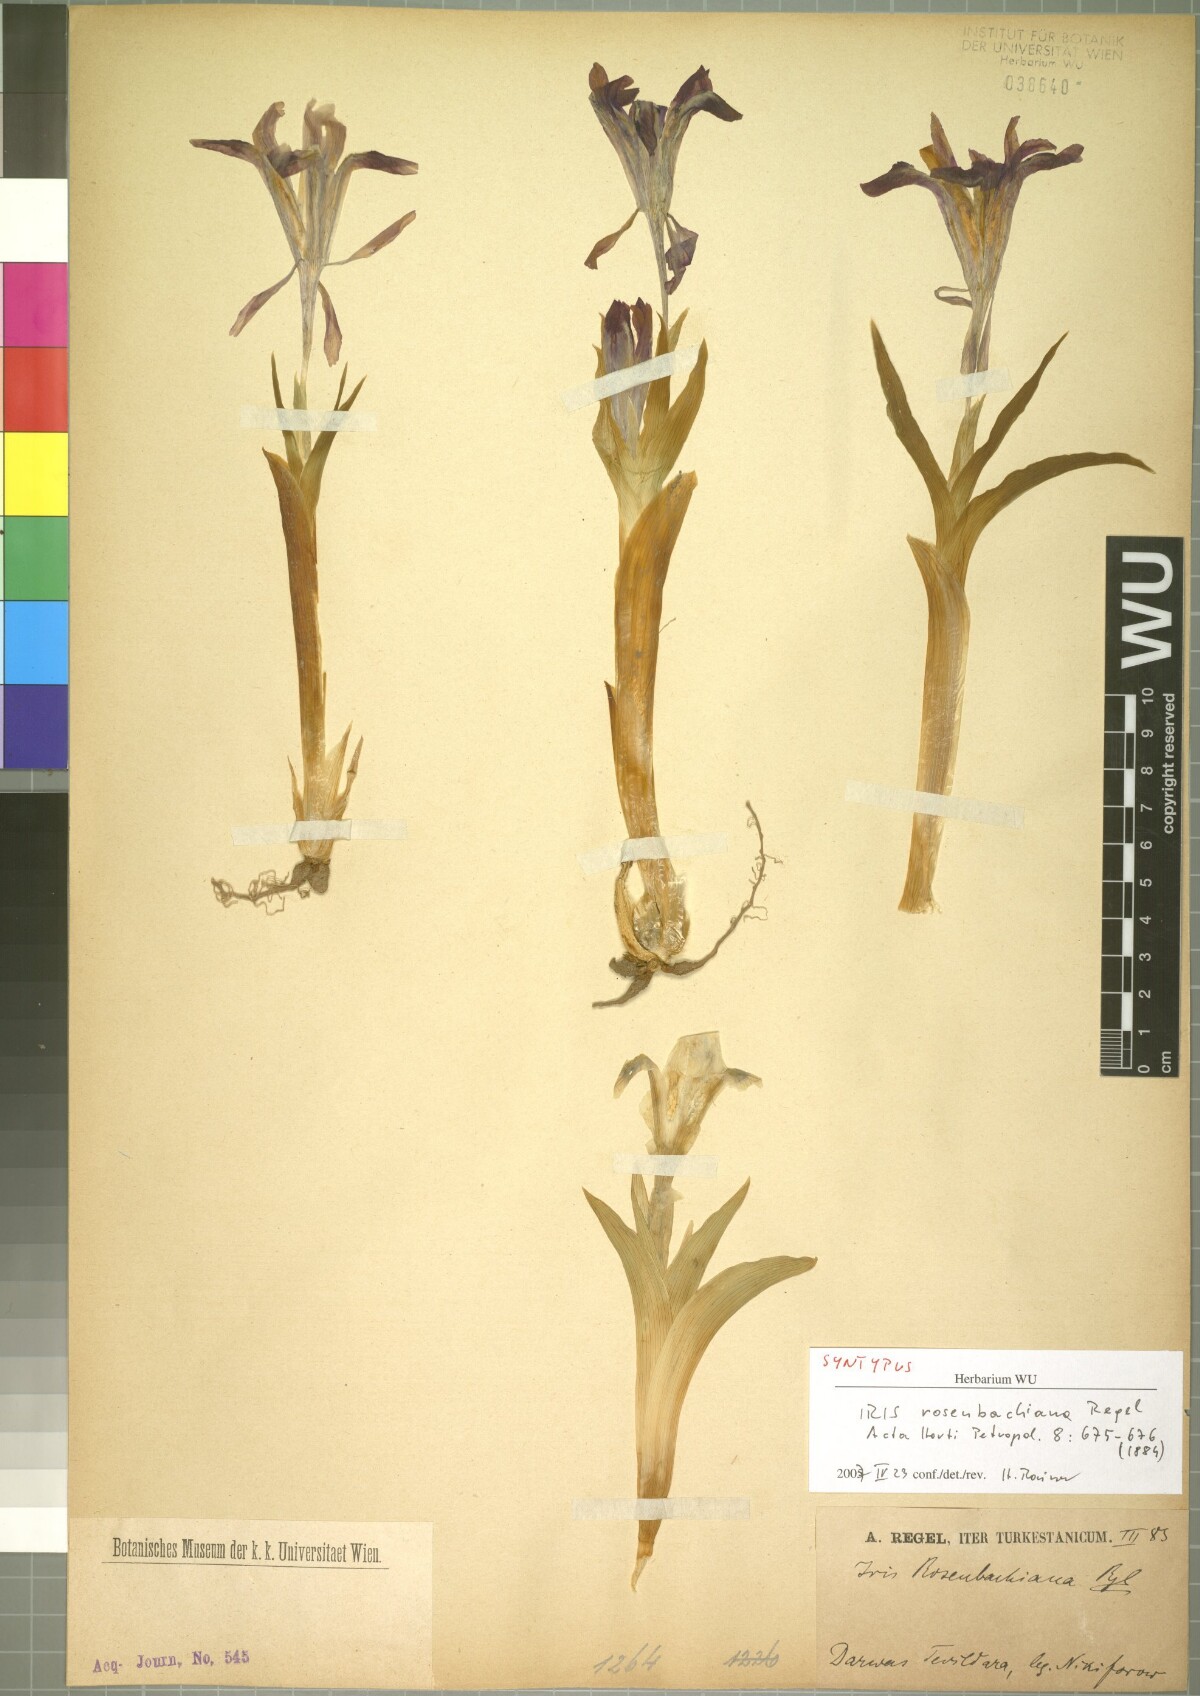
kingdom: Plantae
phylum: Tracheophyta
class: Liliopsida
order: Asparagales
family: Iridaceae
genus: Iris
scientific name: Iris rosenbachiana
